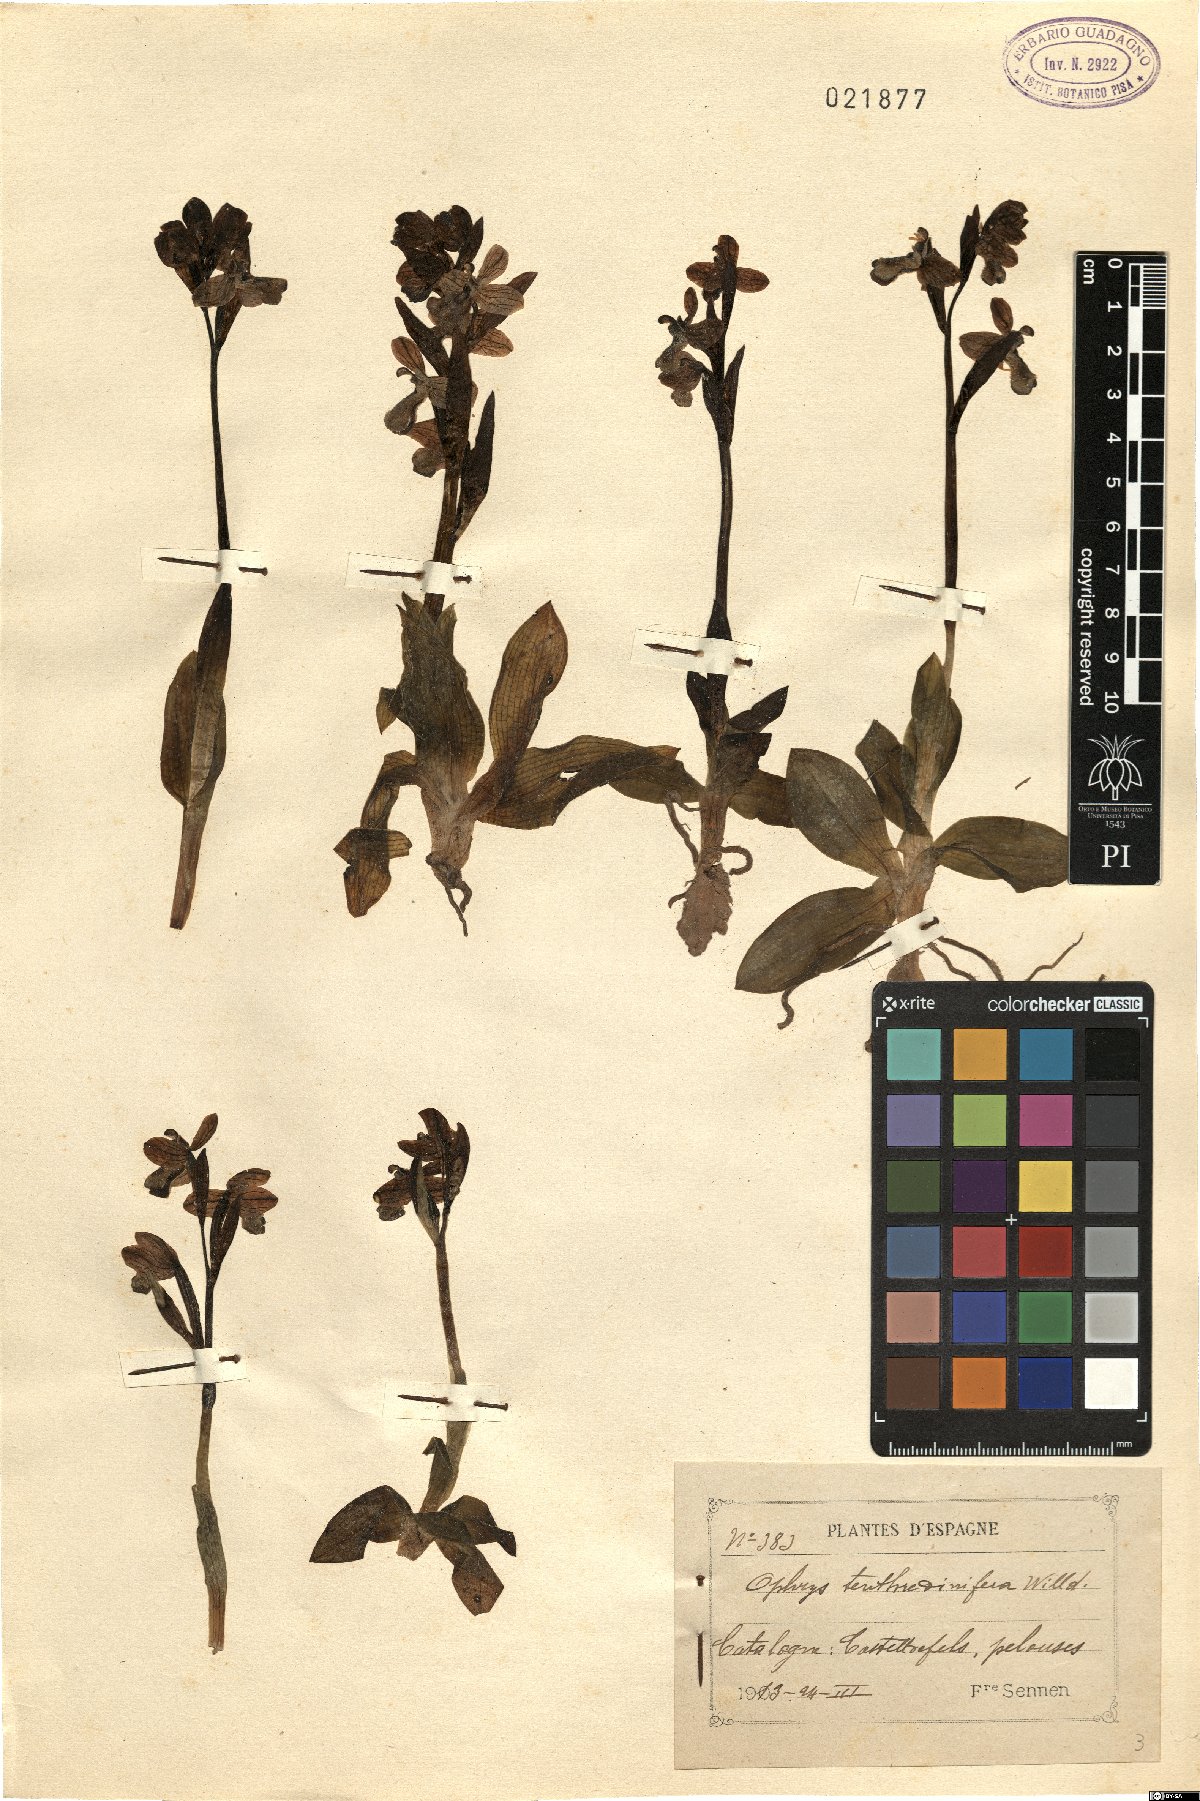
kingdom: Plantae
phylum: Tracheophyta
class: Liliopsida
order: Asparagales
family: Orchidaceae
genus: Ophrys
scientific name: Ophrys tenthredinifera
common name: Sawfly orchid
